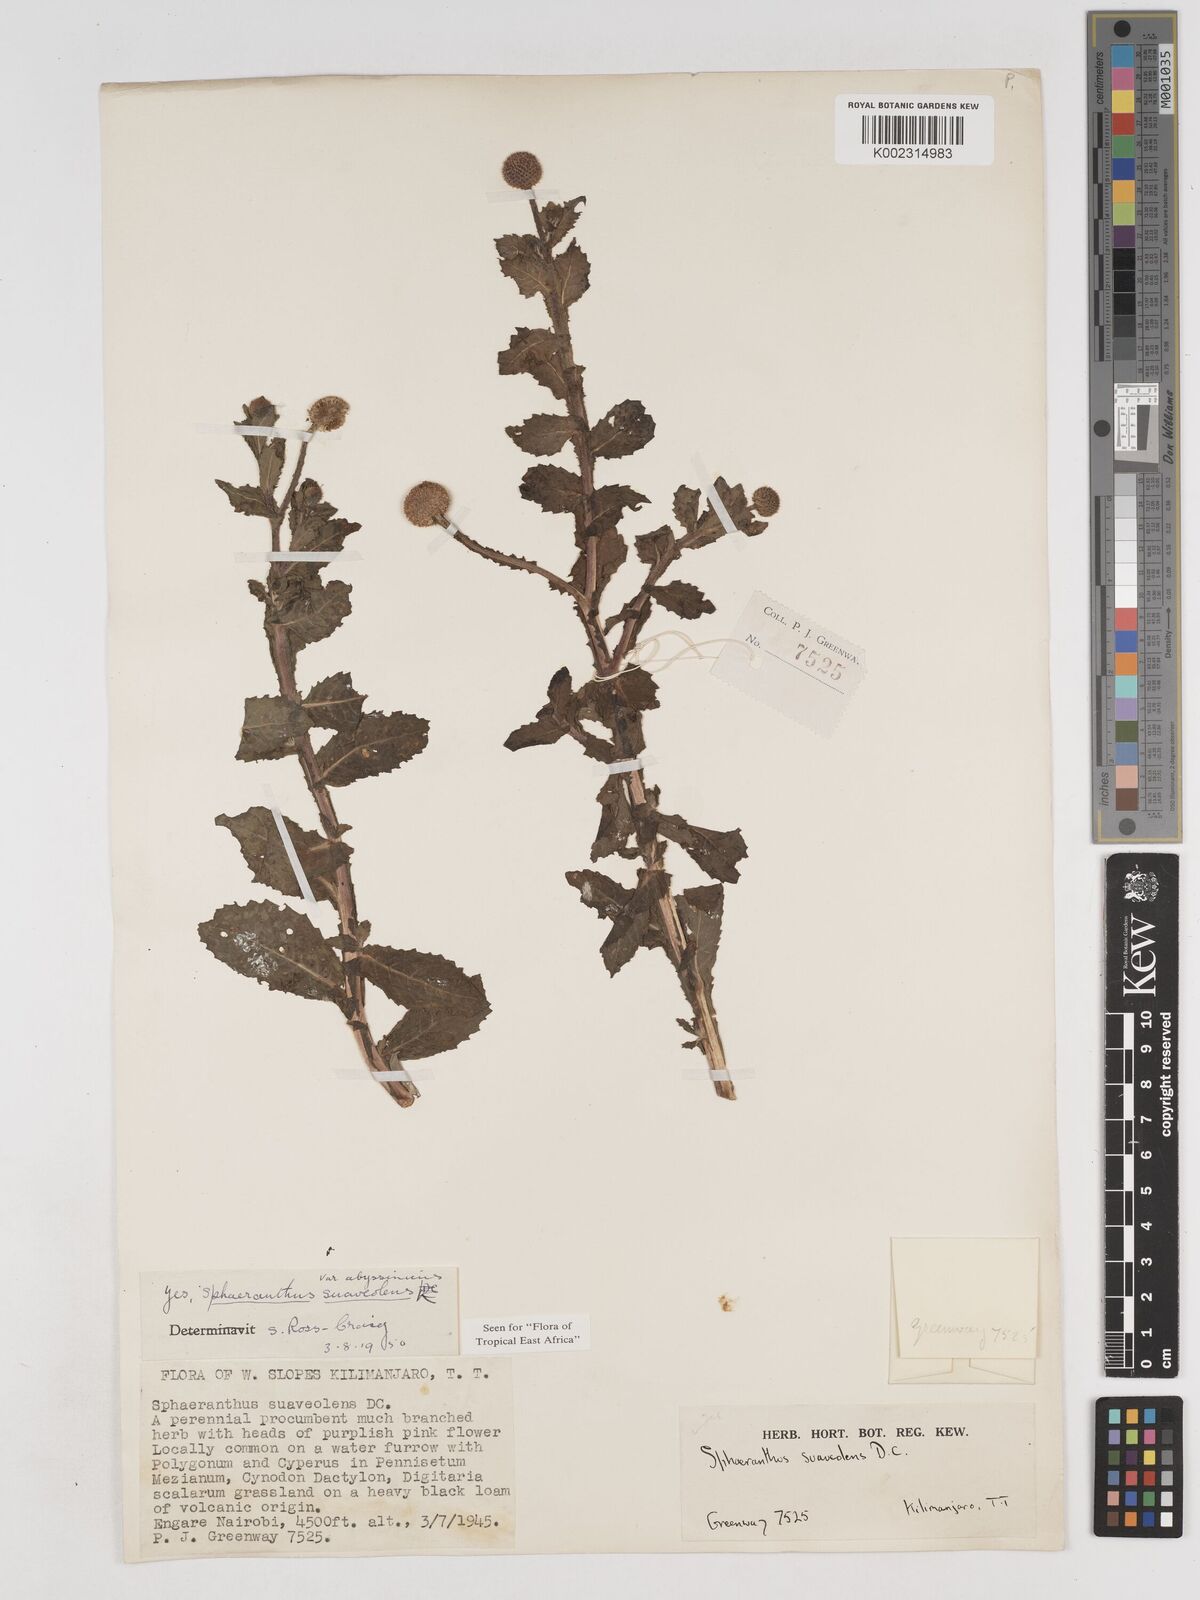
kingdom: Plantae
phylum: Tracheophyta
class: Magnoliopsida
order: Asterales
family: Asteraceae
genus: Sphaeranthus
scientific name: Sphaeranthus suaveolens
